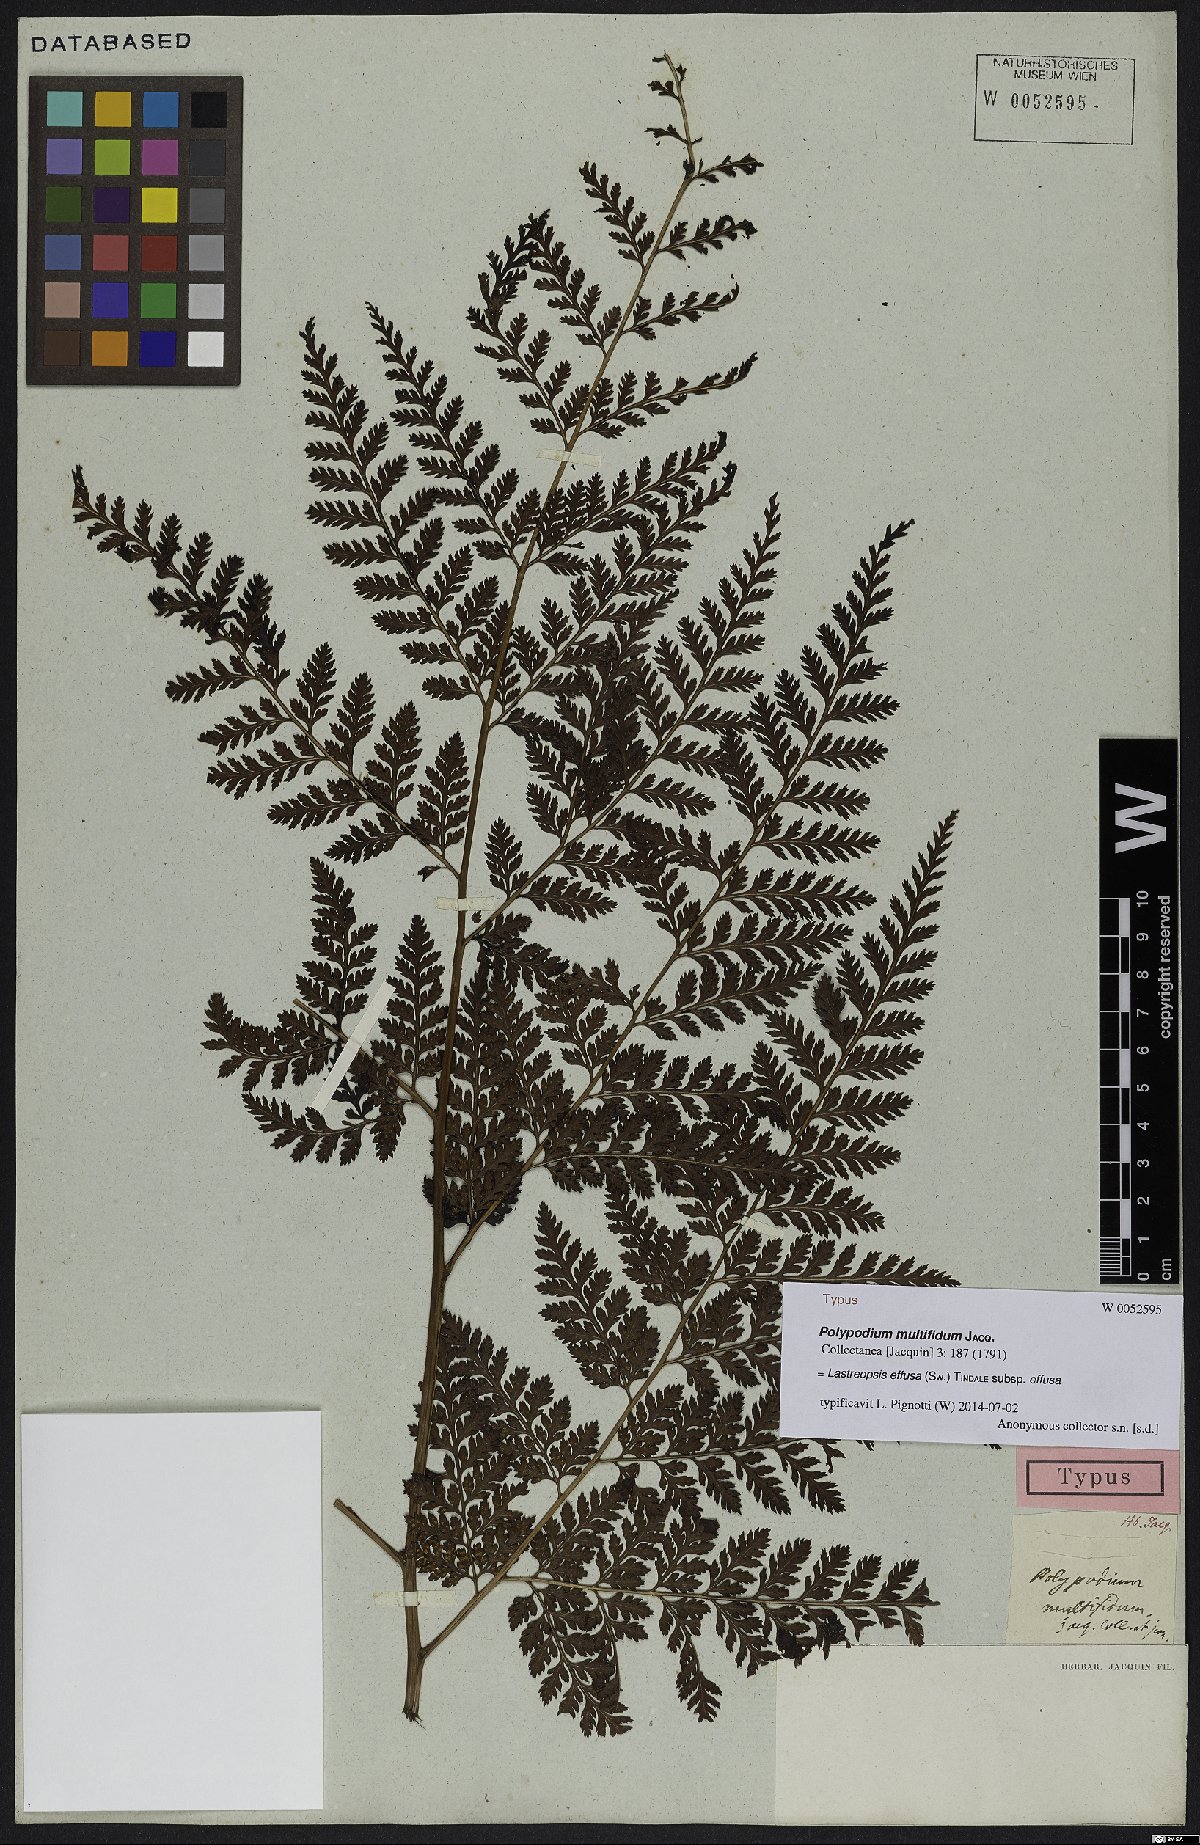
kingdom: Plantae
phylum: Tracheophyta
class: Polypodiopsida
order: Polypodiales
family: Dryopteridaceae
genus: Parapolystichum
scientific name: Parapolystichum effusum
